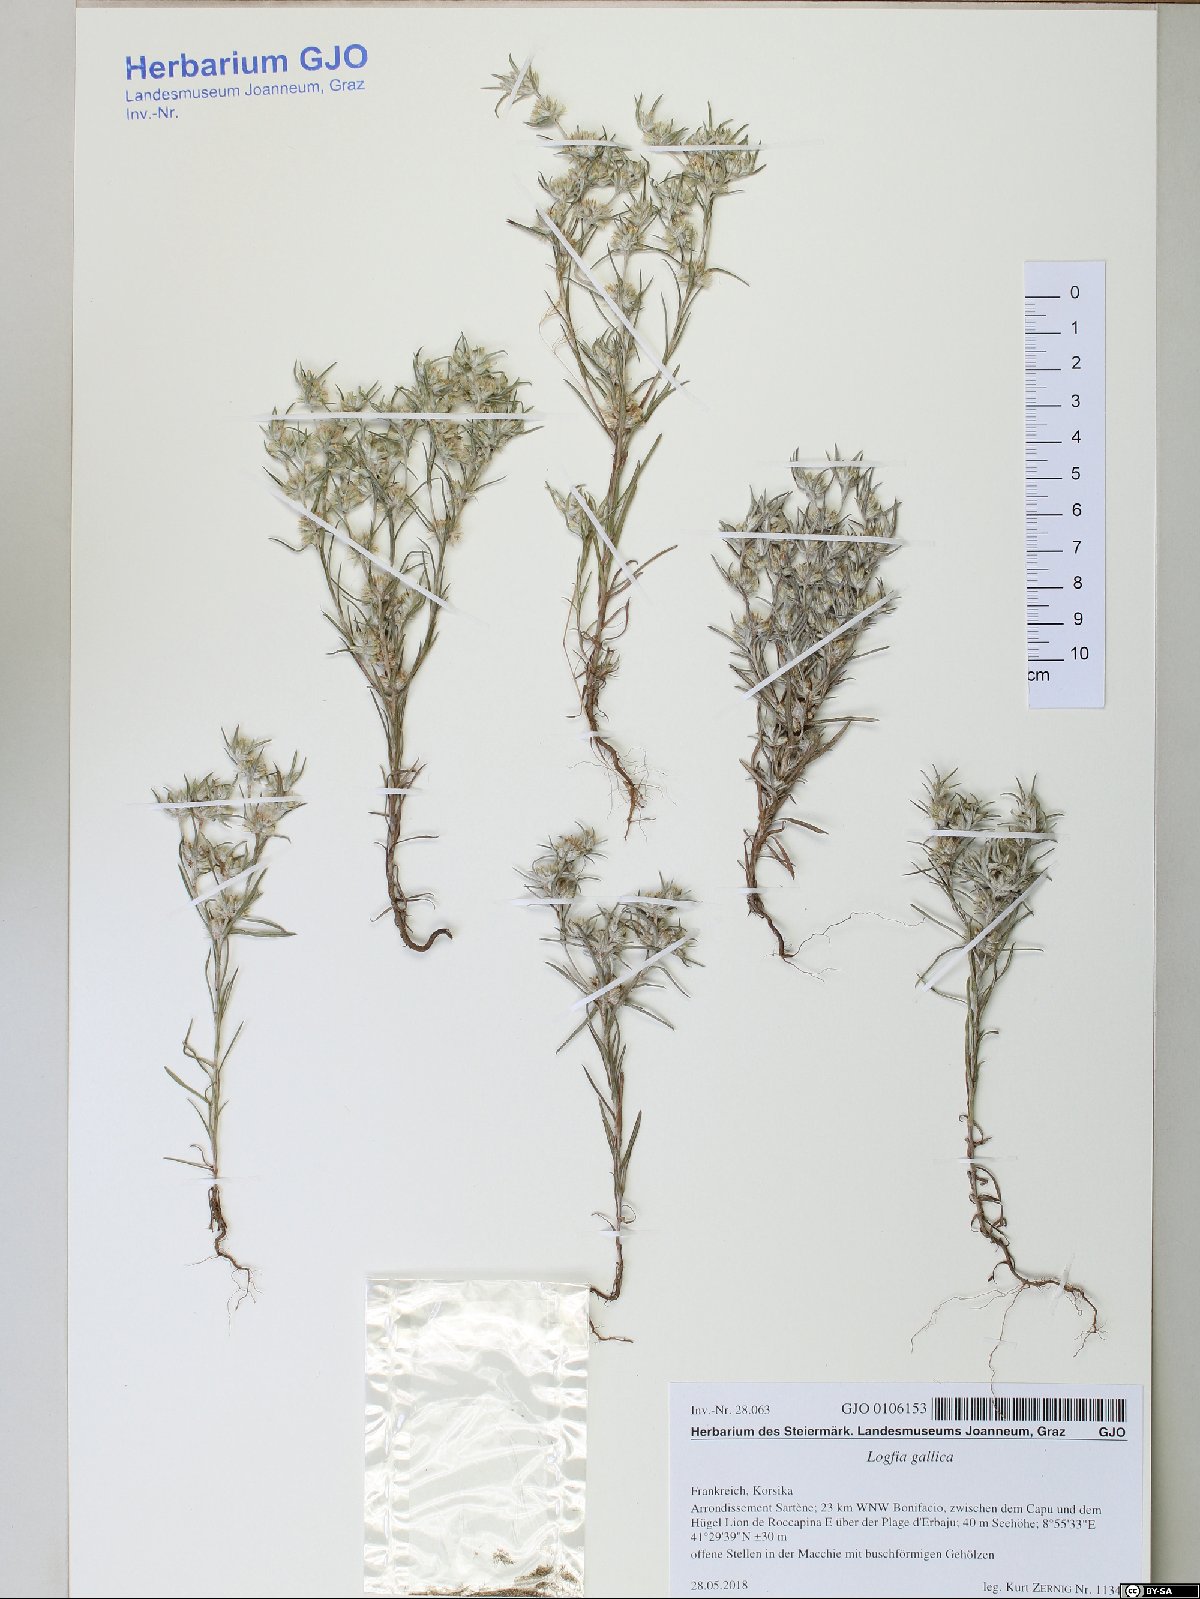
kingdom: Plantae
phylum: Tracheophyta
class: Magnoliopsida
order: Asterales
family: Asteraceae
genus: Logfia
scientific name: Logfia gallica
